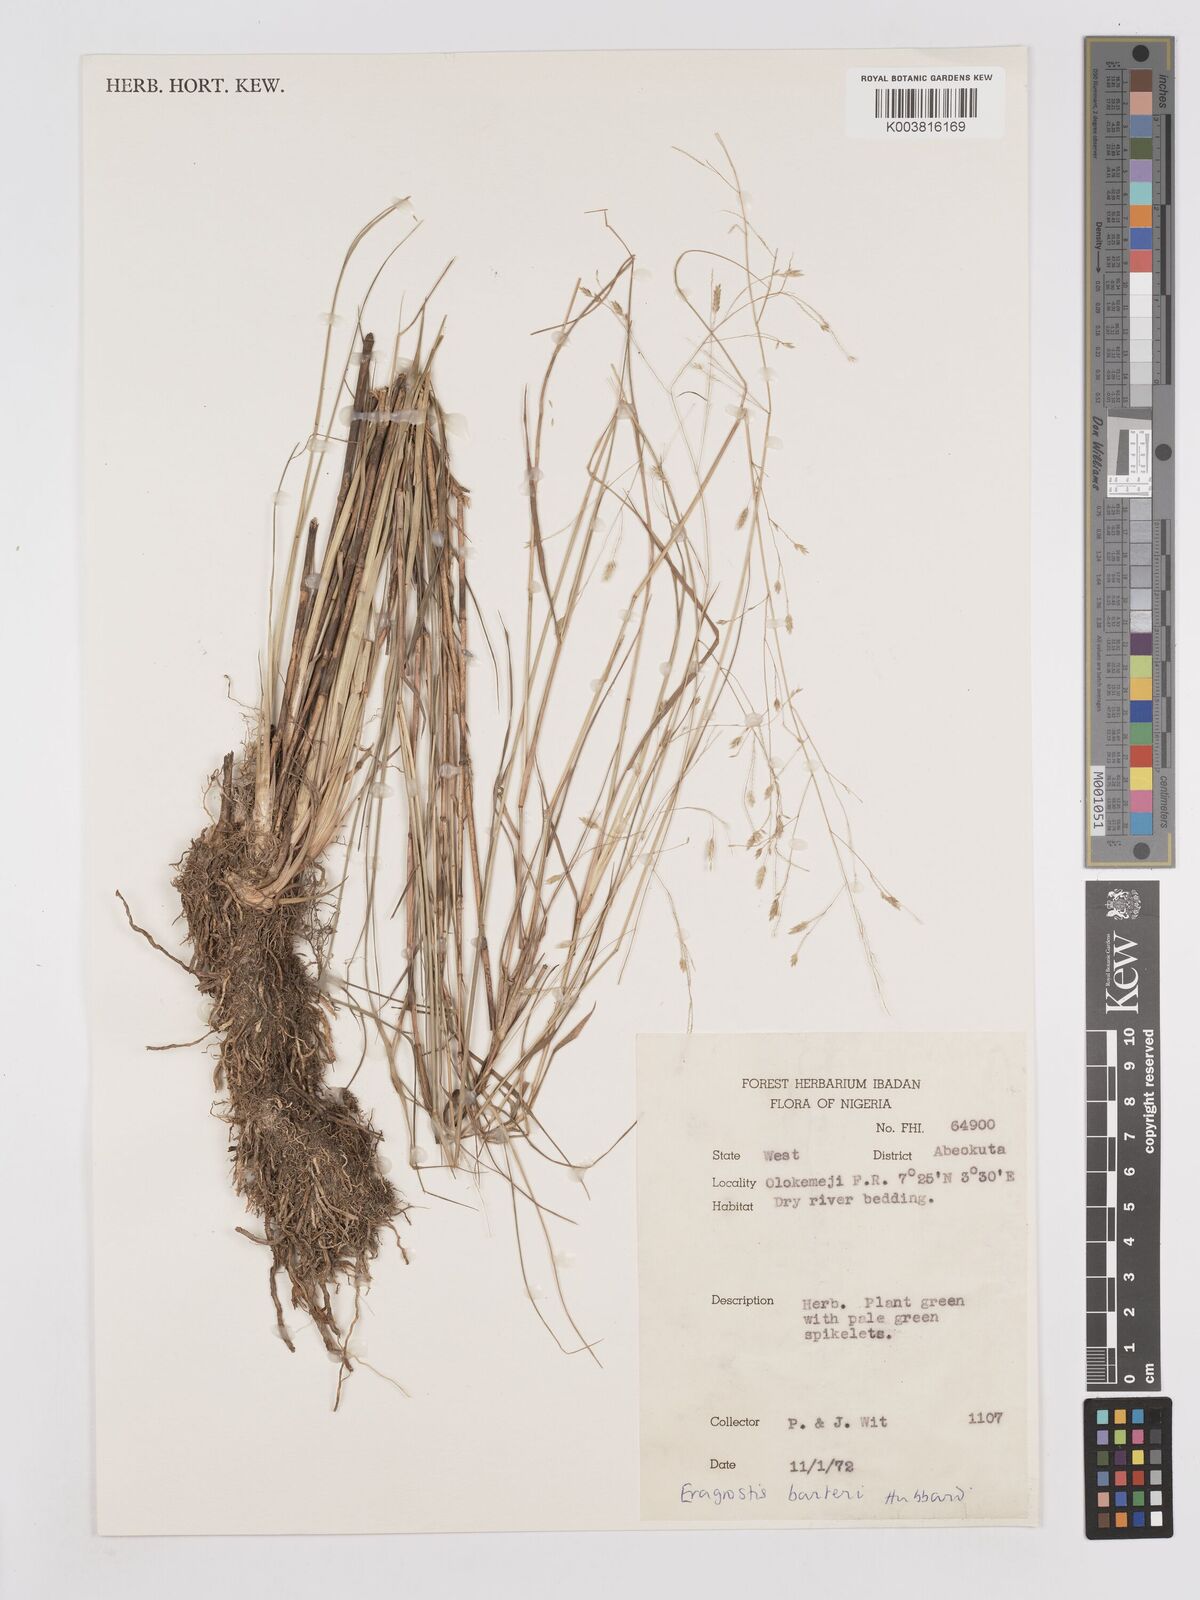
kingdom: Plantae
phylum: Tracheophyta
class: Liliopsida
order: Poales
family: Poaceae
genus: Eragrostis
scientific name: Eragrostis barteri
